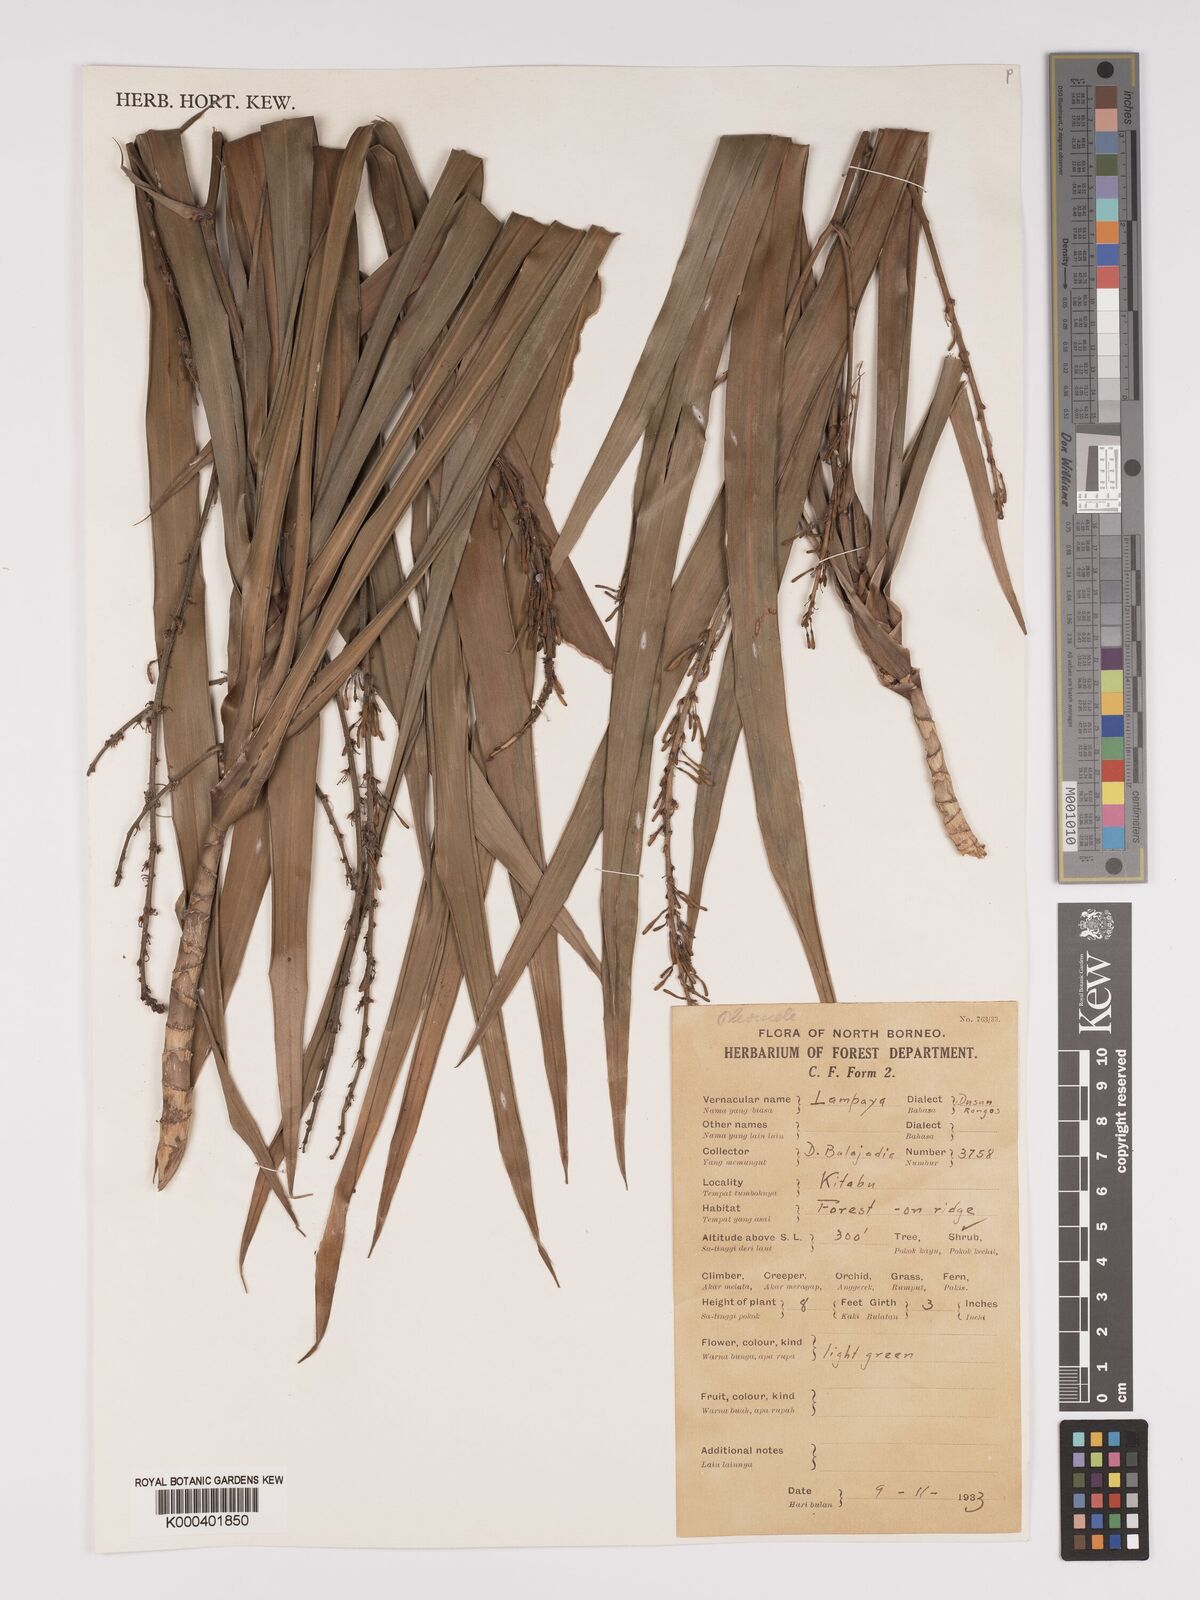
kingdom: Plantae
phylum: Tracheophyta
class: Liliopsida
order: Asparagales
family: Asparagaceae
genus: Dracaena
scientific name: Dracaena
